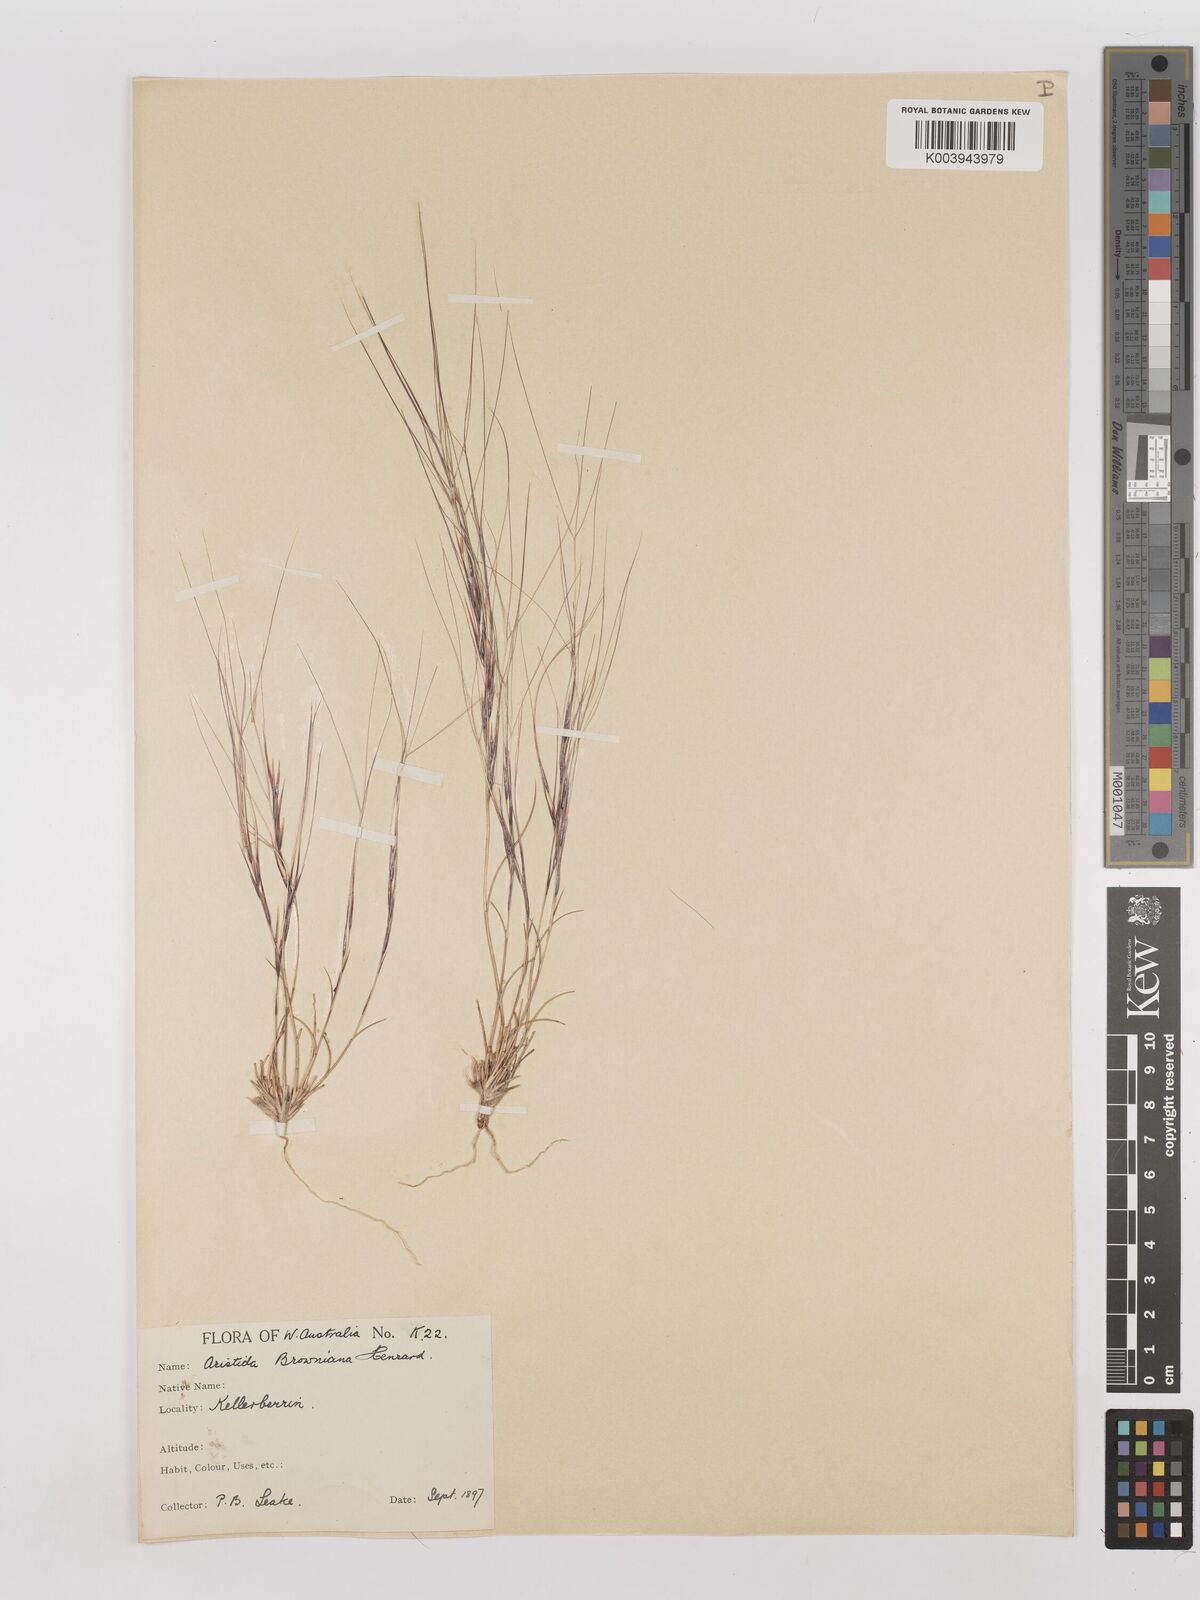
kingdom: Plantae
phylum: Tracheophyta
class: Liliopsida
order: Poales
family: Poaceae
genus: Aristida
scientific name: Aristida contorta
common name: Bunch kerosene grass
